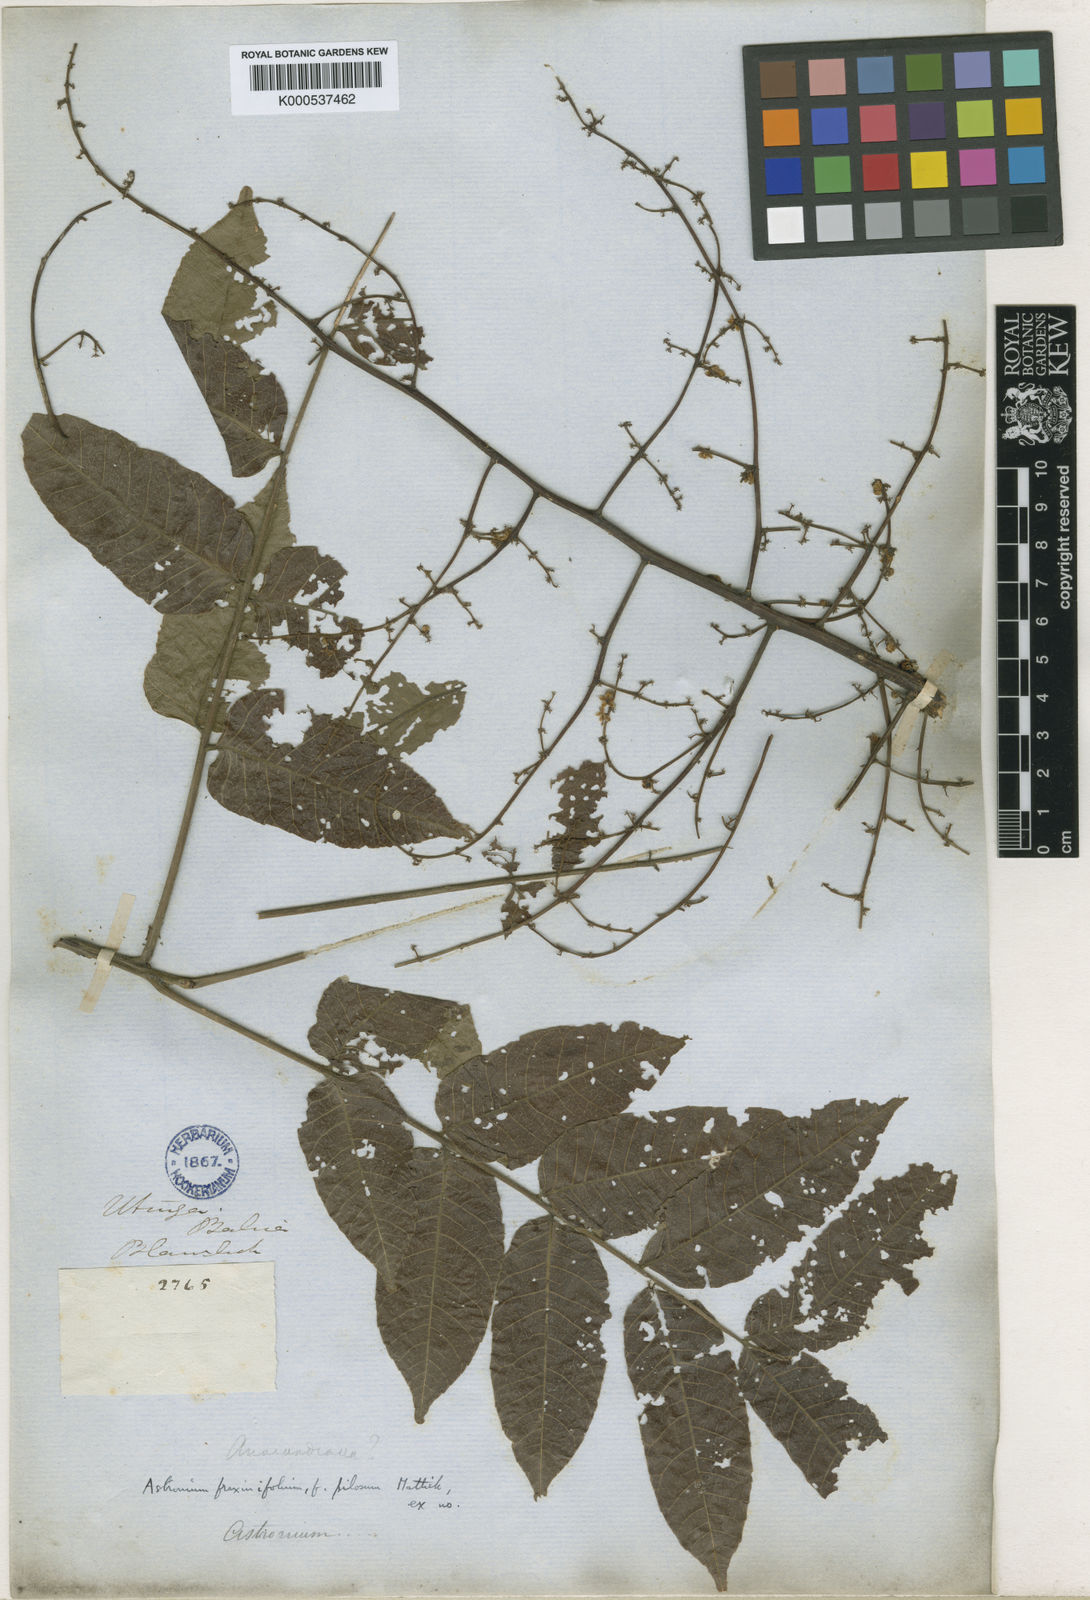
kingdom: Plantae
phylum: Tracheophyta
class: Magnoliopsida
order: Sapindales
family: Anacardiaceae
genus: Astronium
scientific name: Astronium fraxinifolium
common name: Tigerwood
